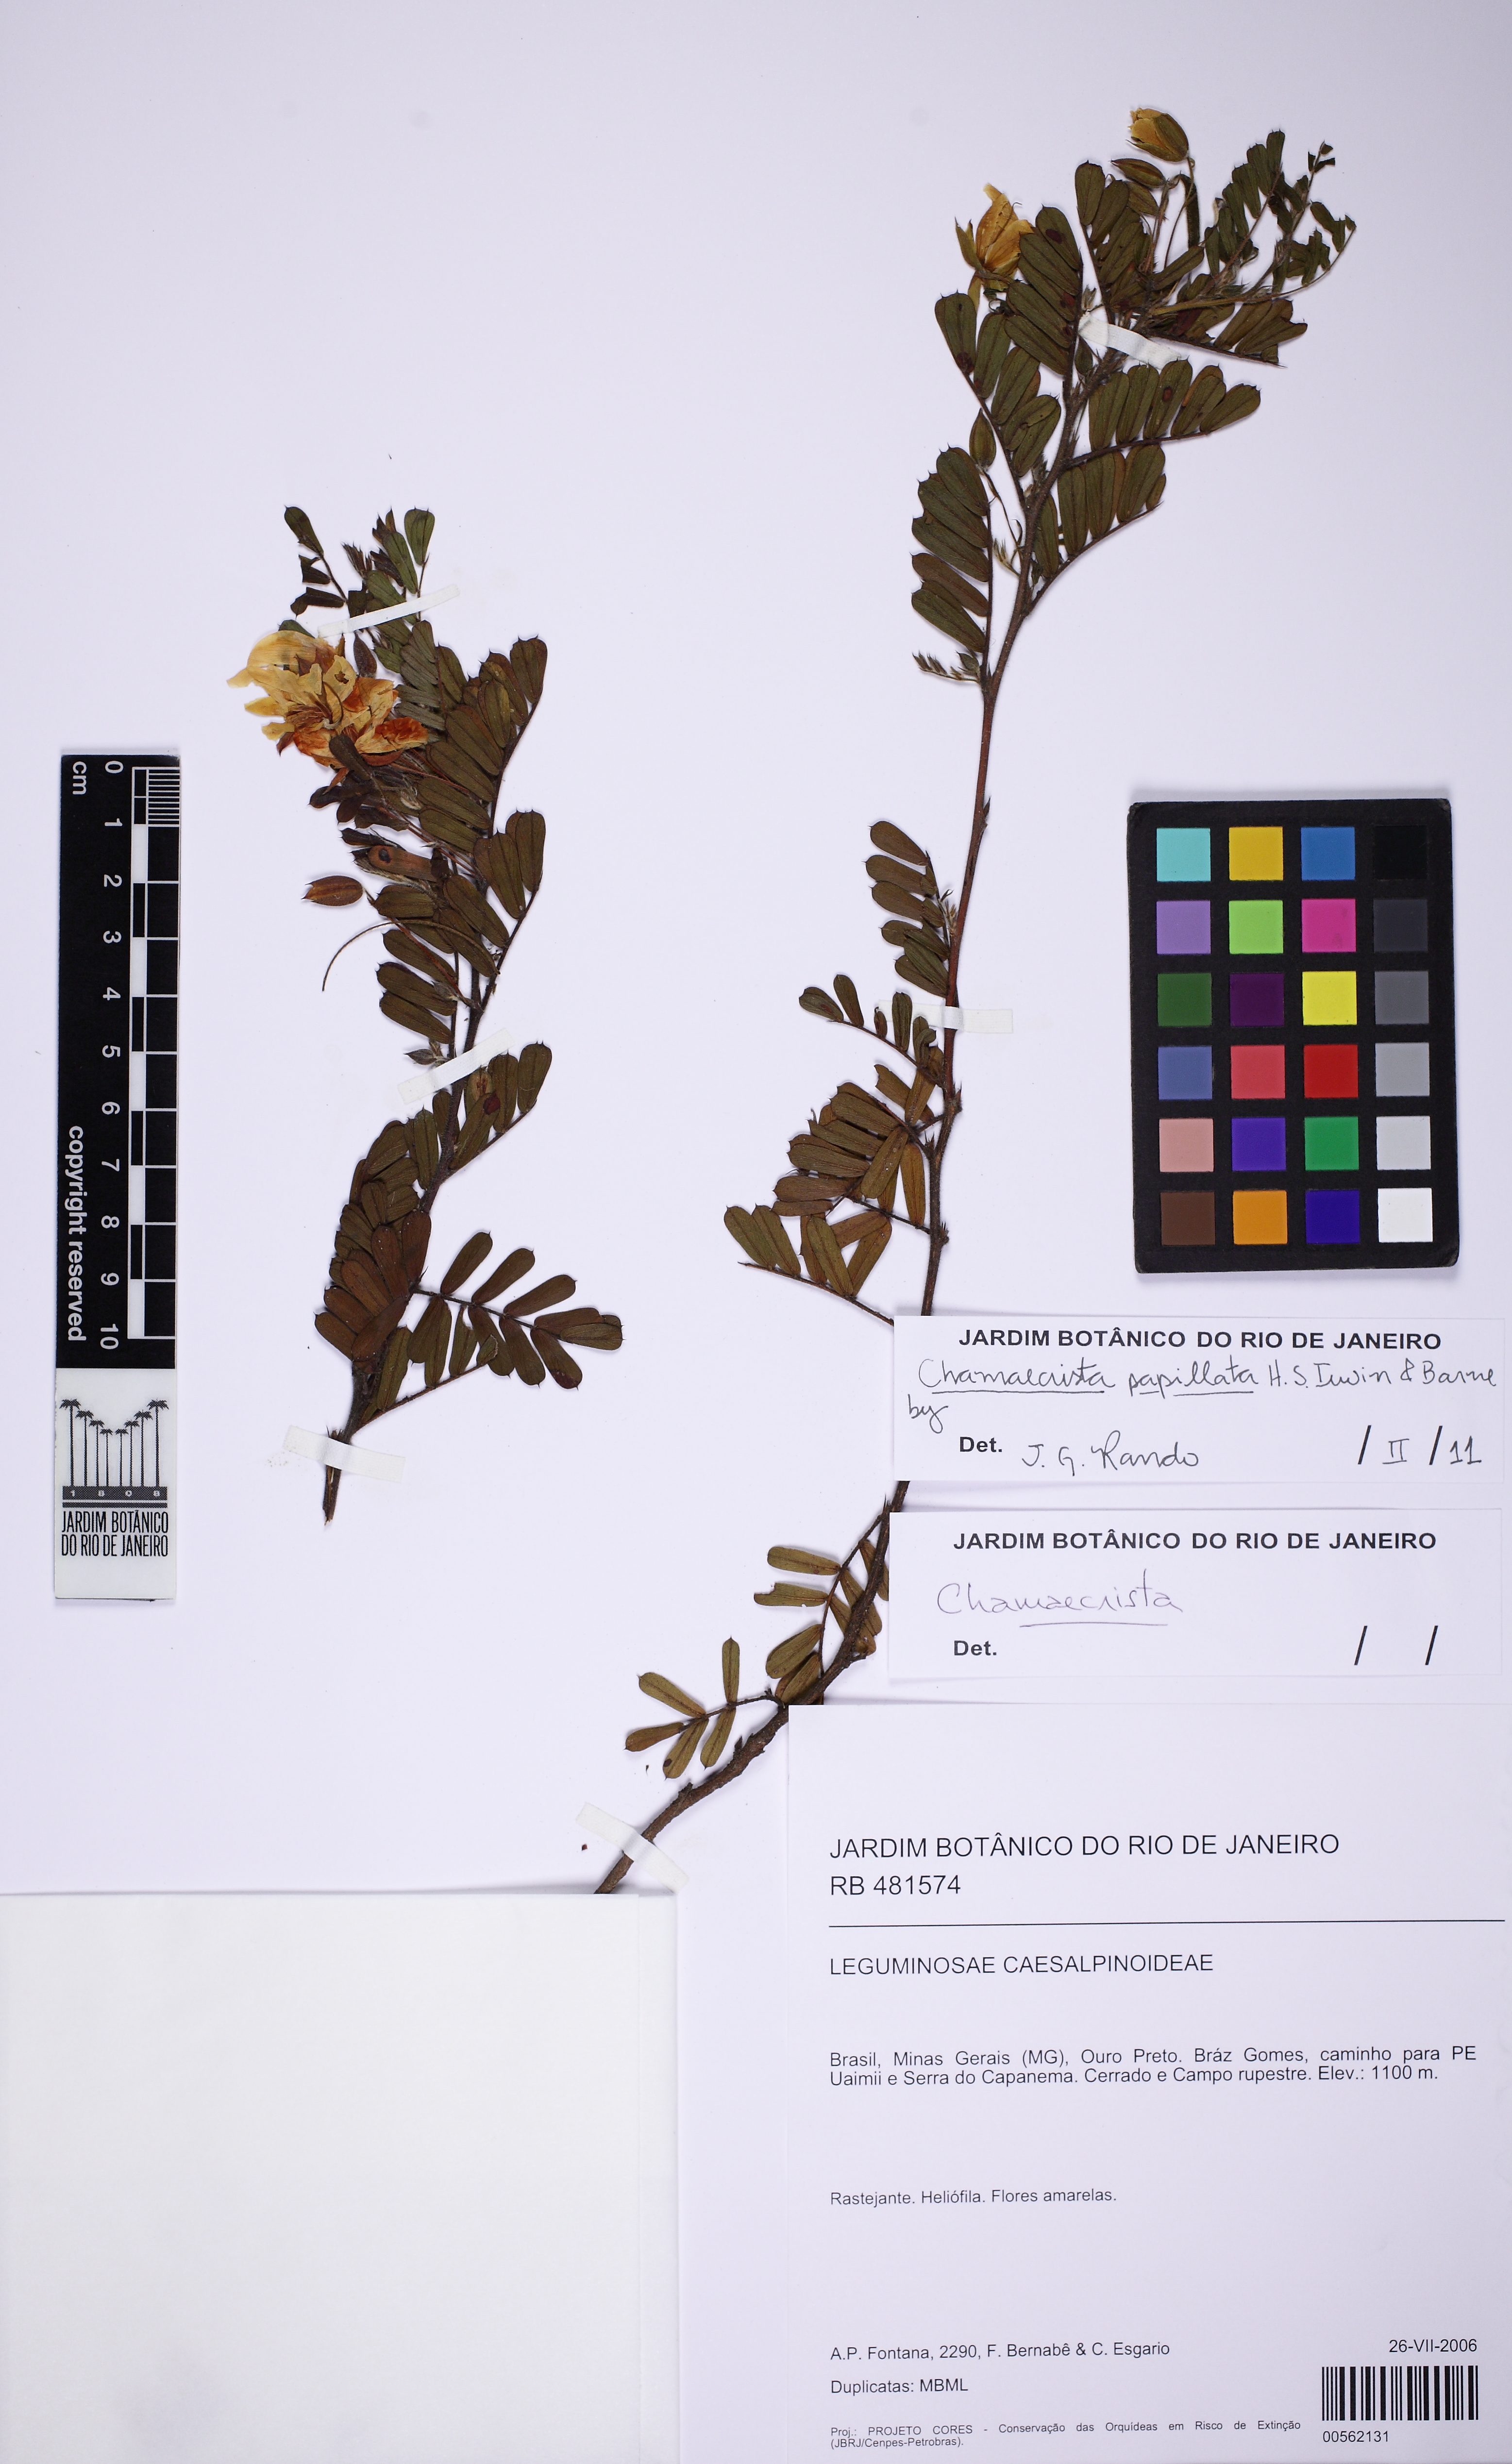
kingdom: Plantae
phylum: Tracheophyta
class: Magnoliopsida
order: Fabales
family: Fabaceae
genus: Chamaecrista
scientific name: Chamaecrista arrojadoana
